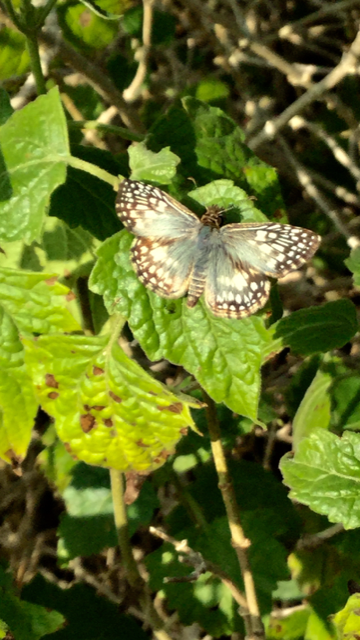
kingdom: Animalia
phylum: Arthropoda
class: Insecta
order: Lepidoptera
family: Hesperiidae
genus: Pyrgus
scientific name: Pyrgus oileus
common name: Tropical Checkered-Skipper
